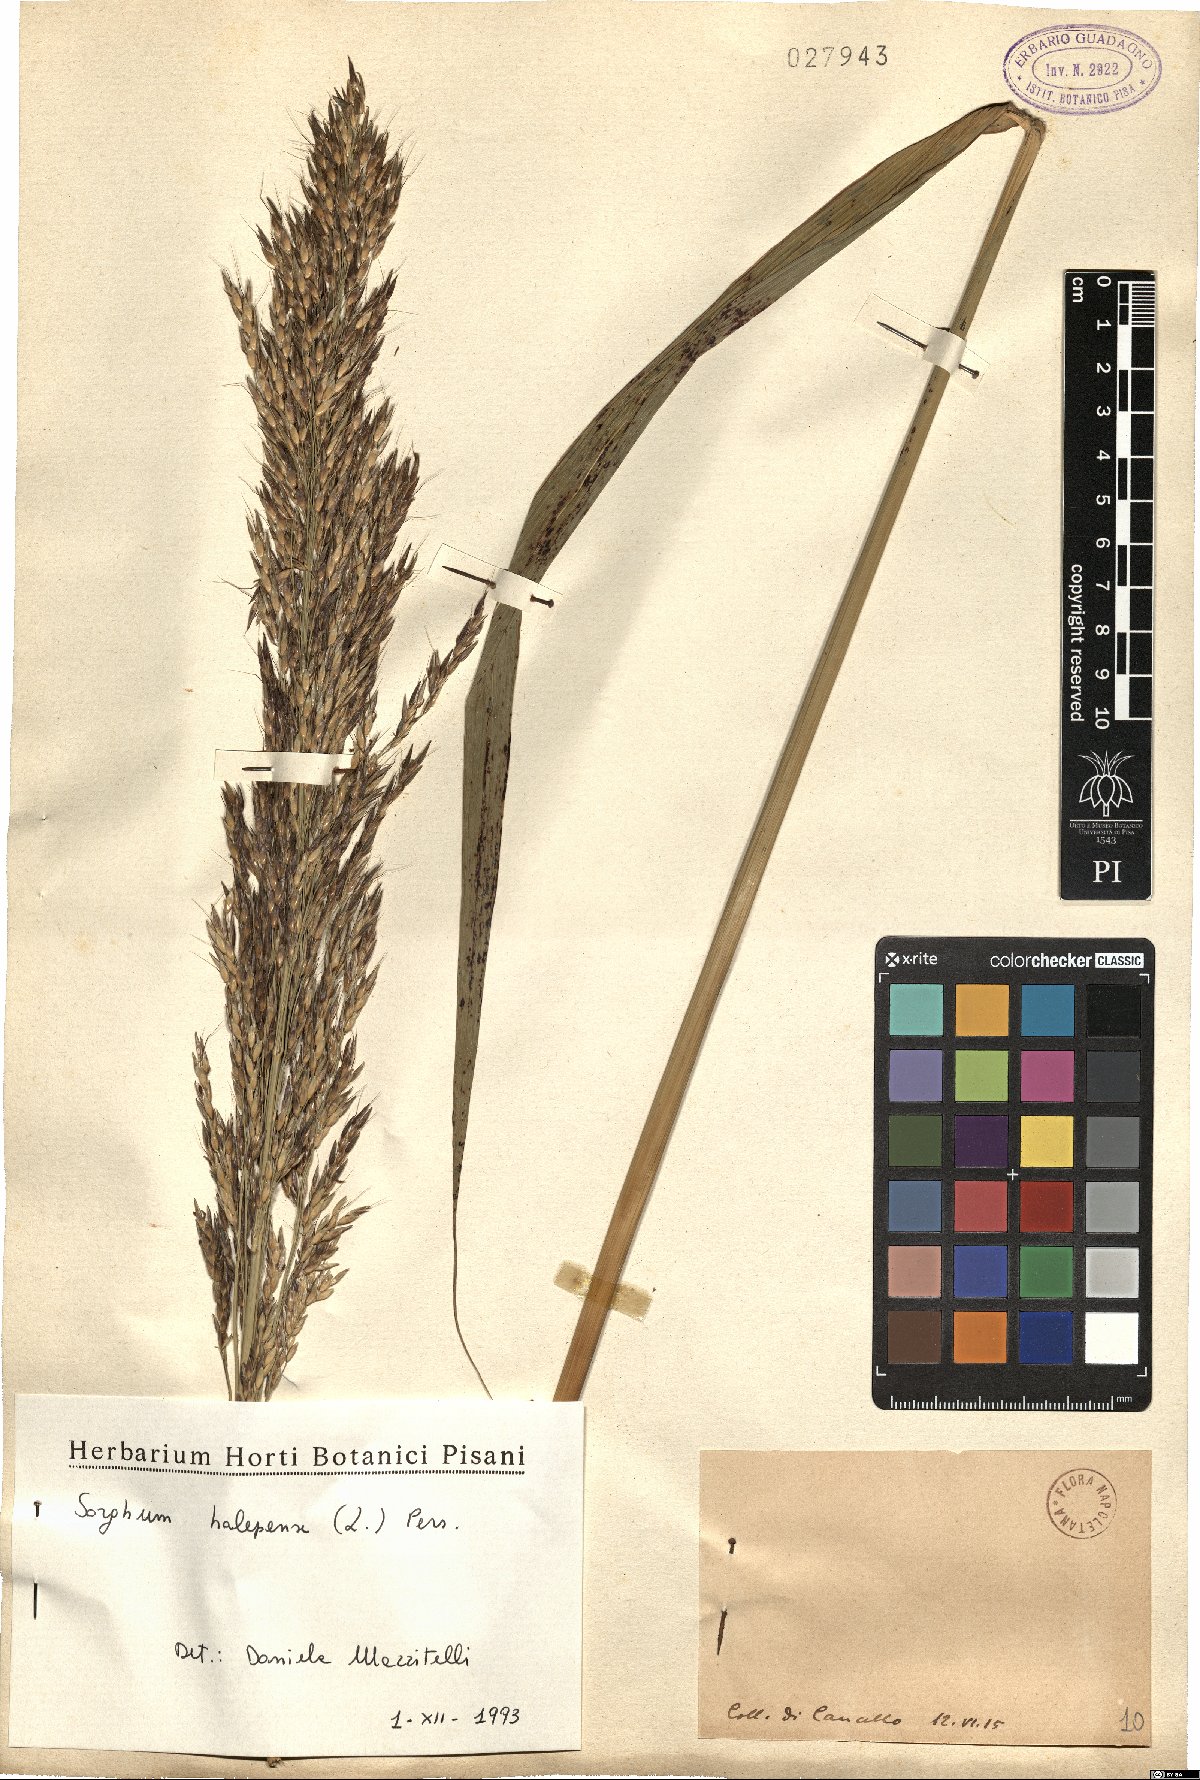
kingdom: Plantae
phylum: Tracheophyta
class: Liliopsida
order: Poales
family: Poaceae
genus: Sorghum
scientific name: Sorghum halepense
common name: Johnson-grass
